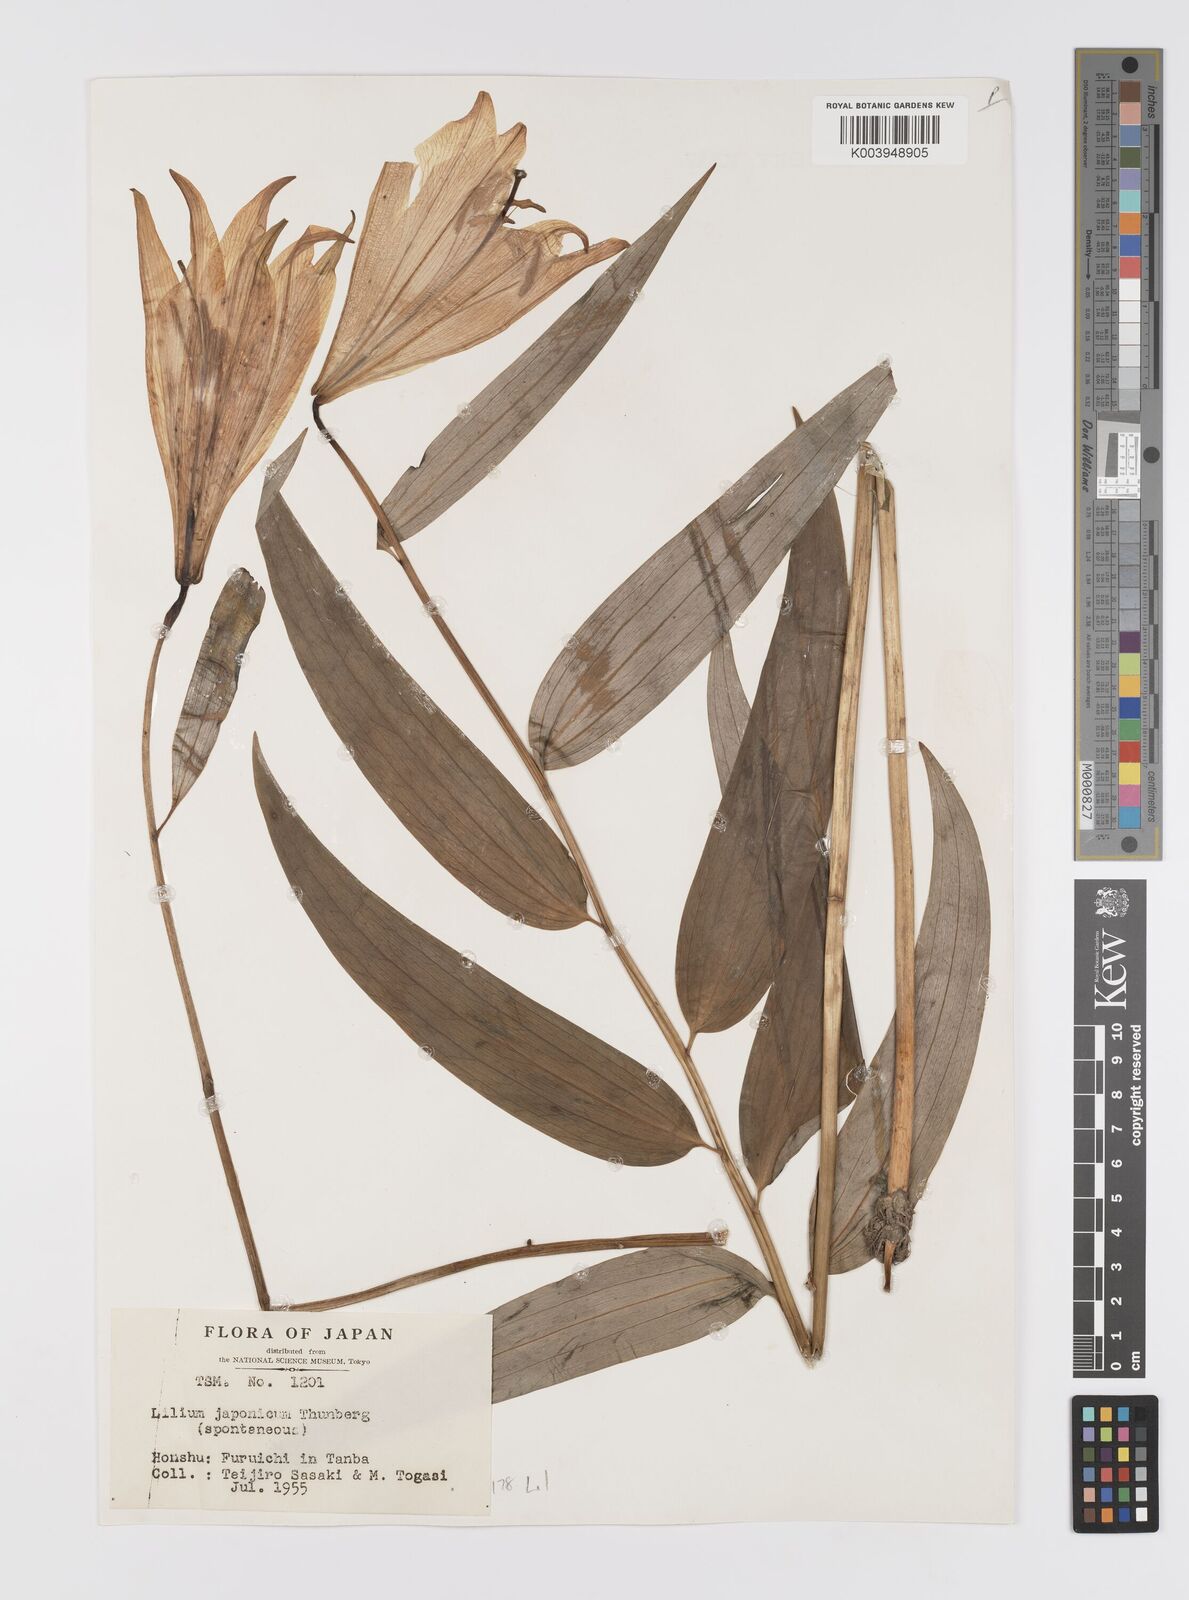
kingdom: Plantae
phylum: Tracheophyta
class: Liliopsida
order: Liliales
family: Liliaceae
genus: Lilium
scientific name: Lilium japonicum
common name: Japanese lily
